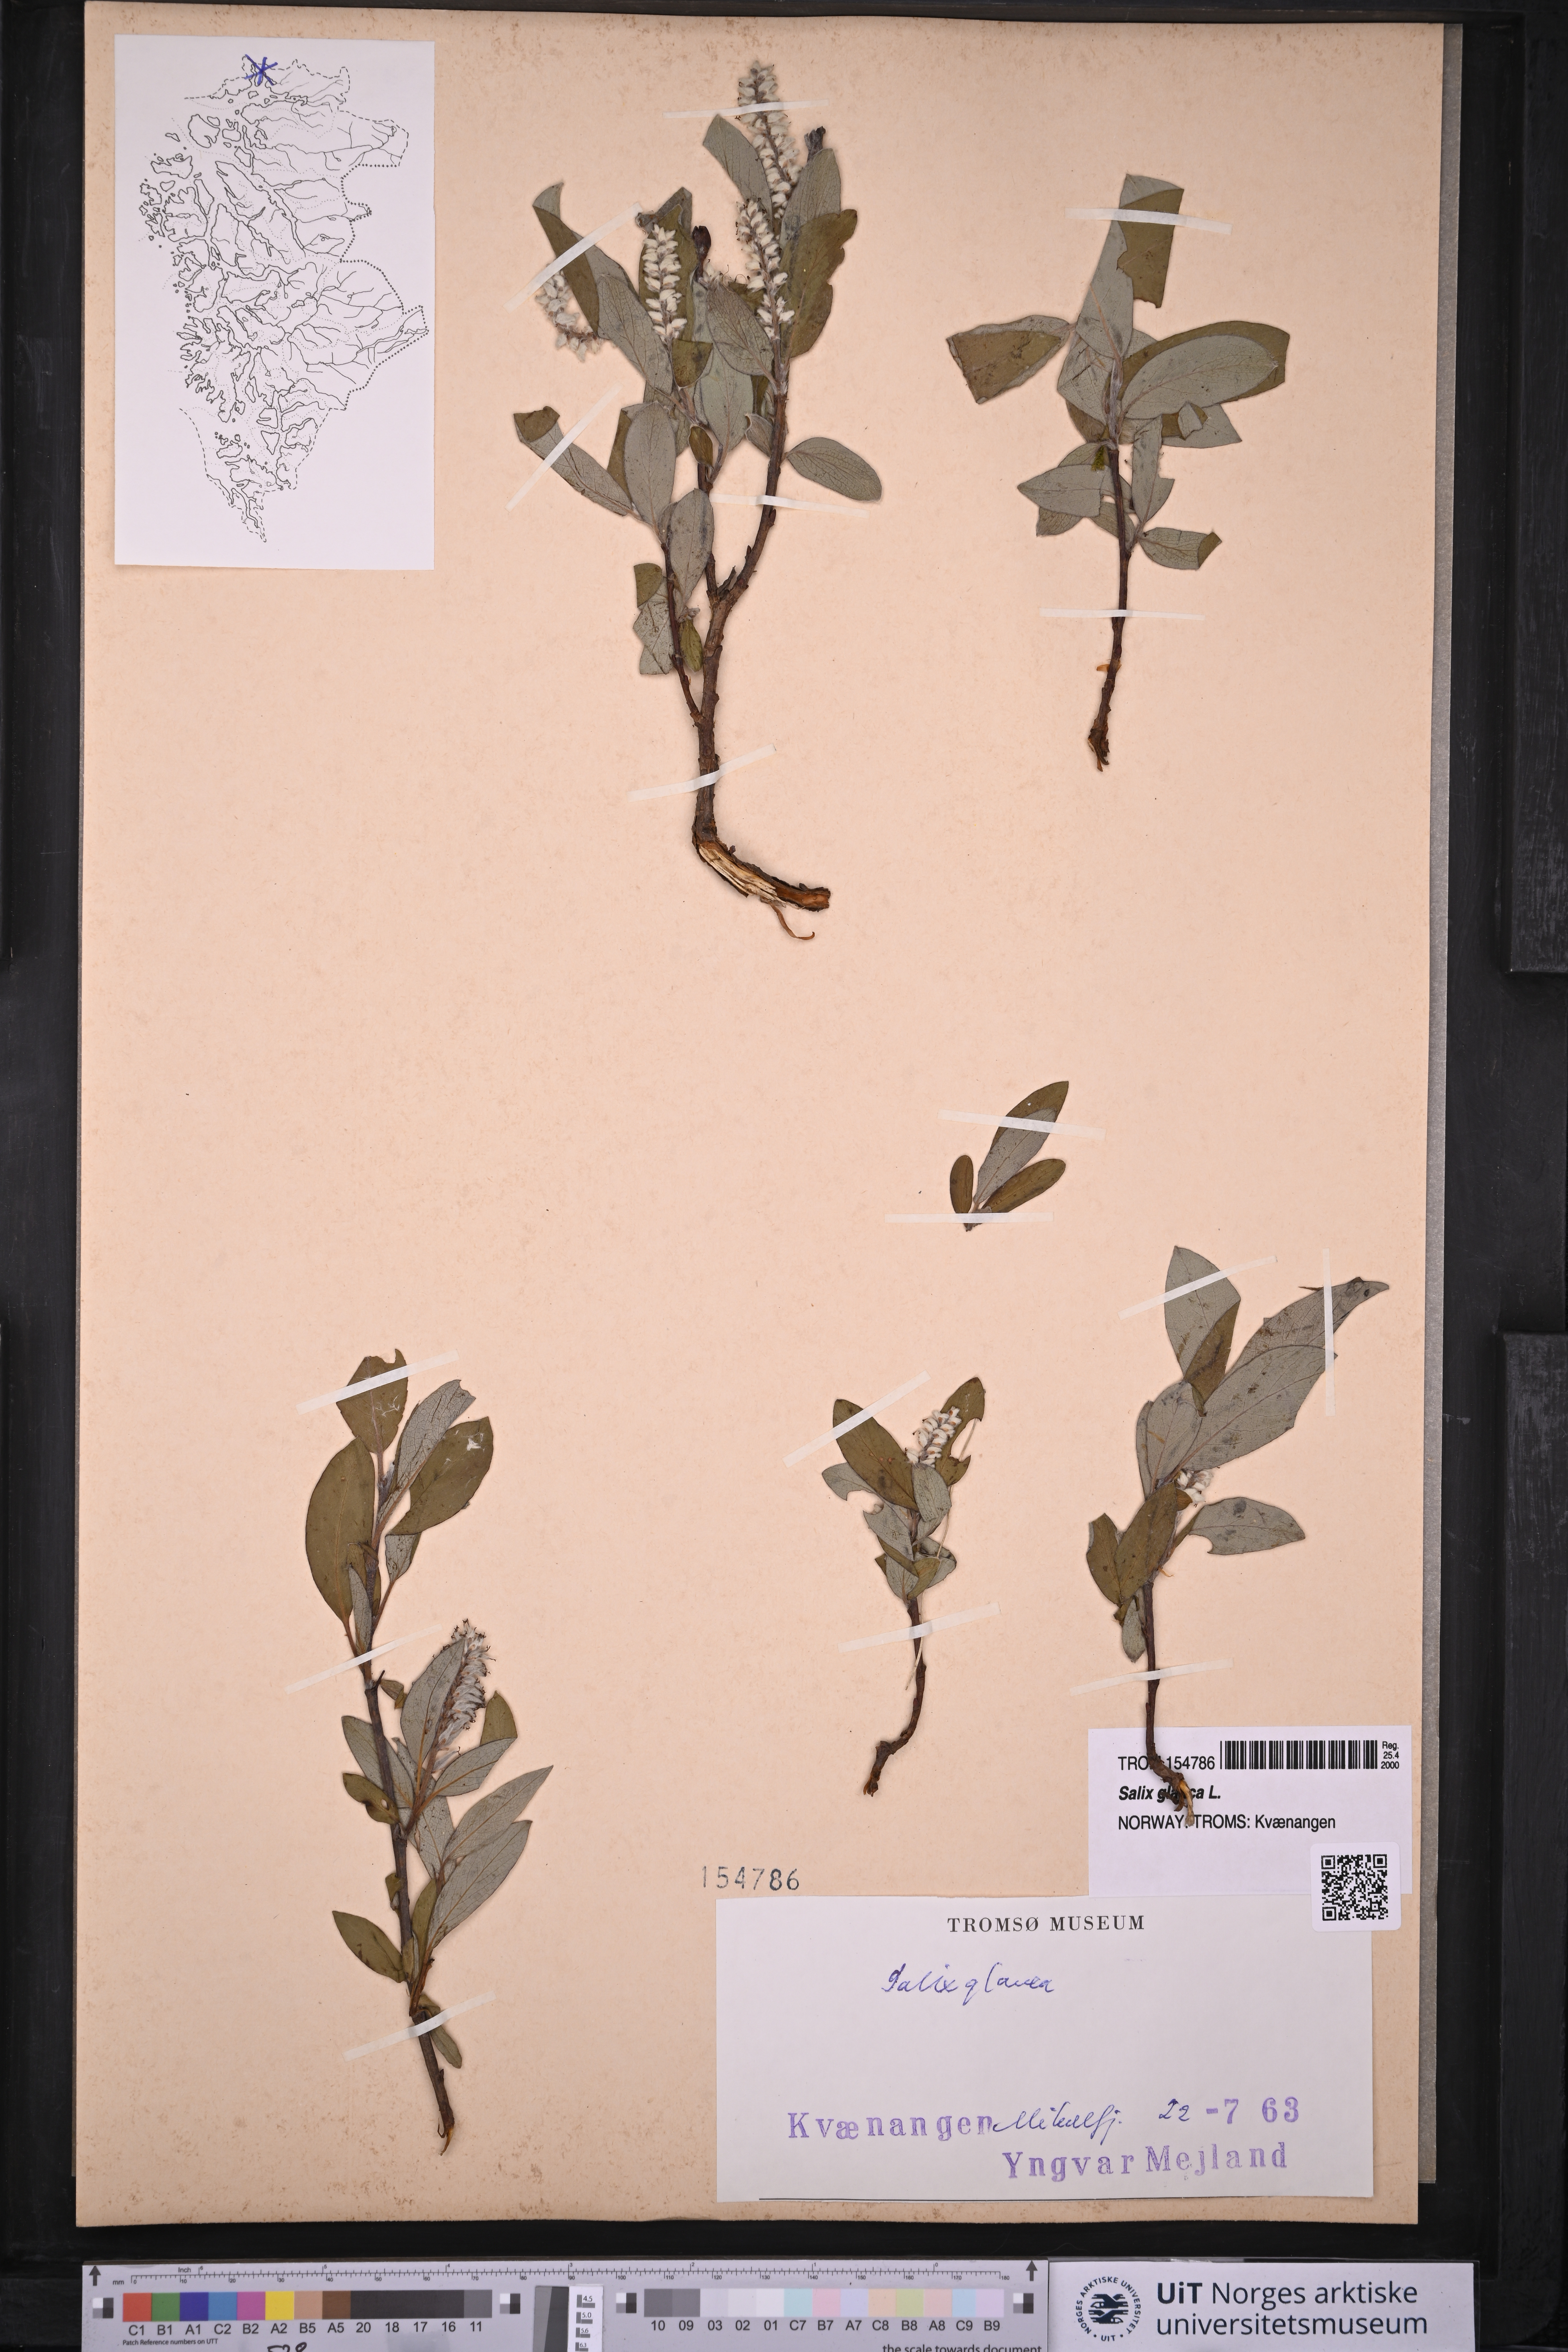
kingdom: Plantae
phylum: Tracheophyta
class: Magnoliopsida
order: Malpighiales
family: Salicaceae
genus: Salix
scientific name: Salix glauca
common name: Glaucous willow
